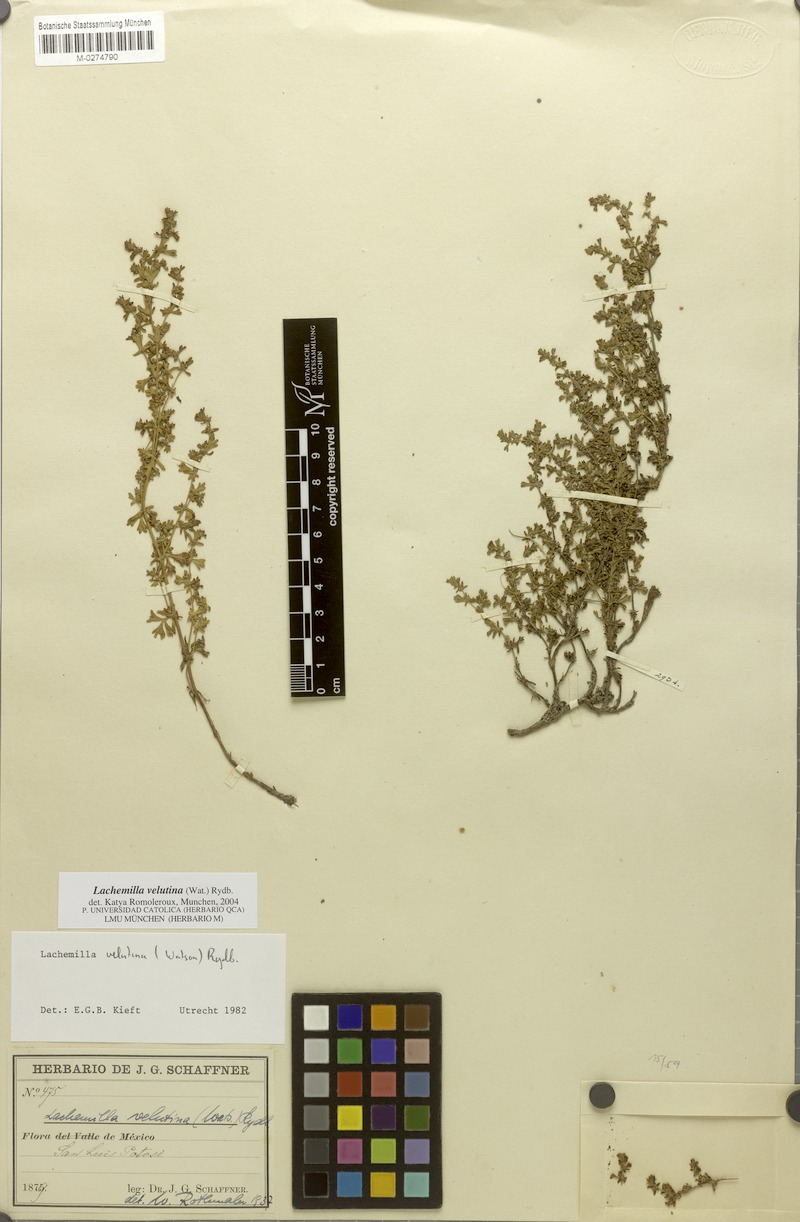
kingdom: Plantae
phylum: Tracheophyta
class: Magnoliopsida
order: Rosales
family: Rosaceae
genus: Lachemilla
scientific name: Lachemilla velutina
